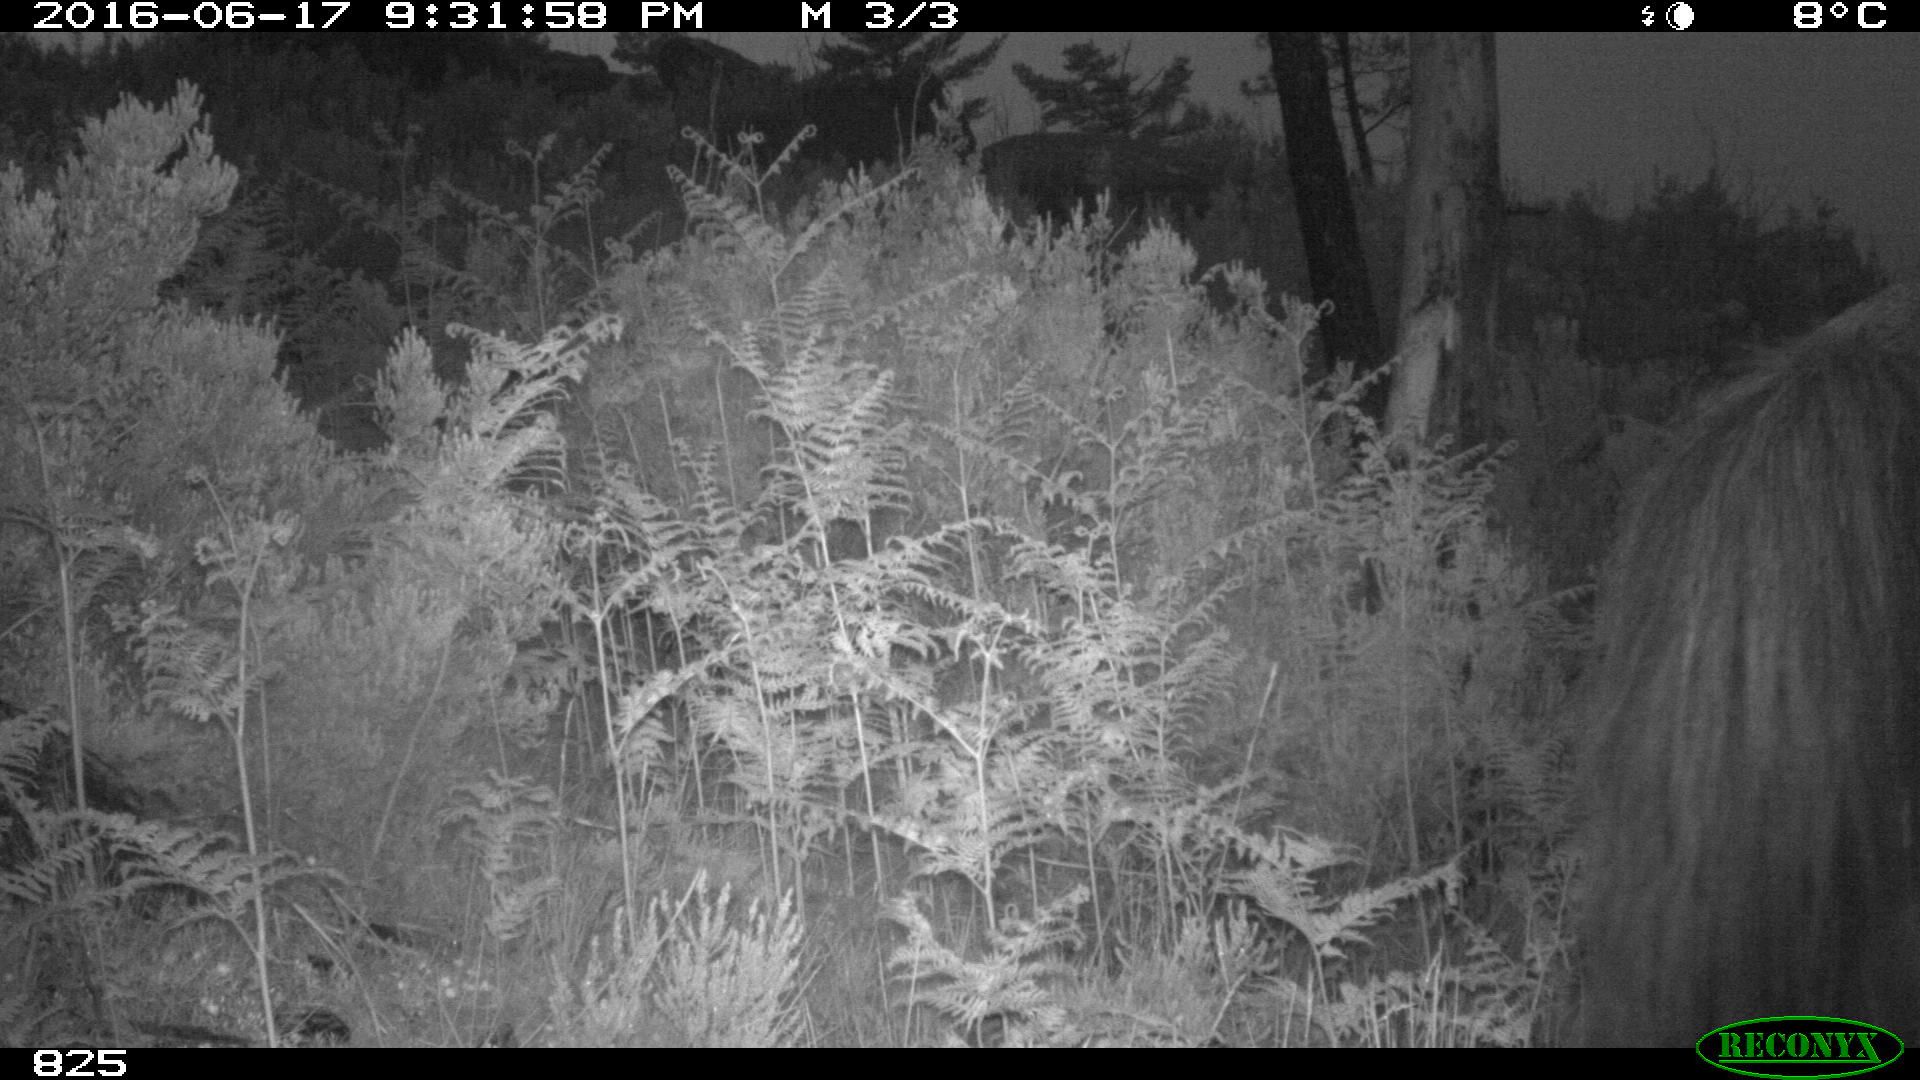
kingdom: Animalia
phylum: Chordata
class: Mammalia
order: Perissodactyla
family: Equidae
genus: Equus
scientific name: Equus caballus
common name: Horse
